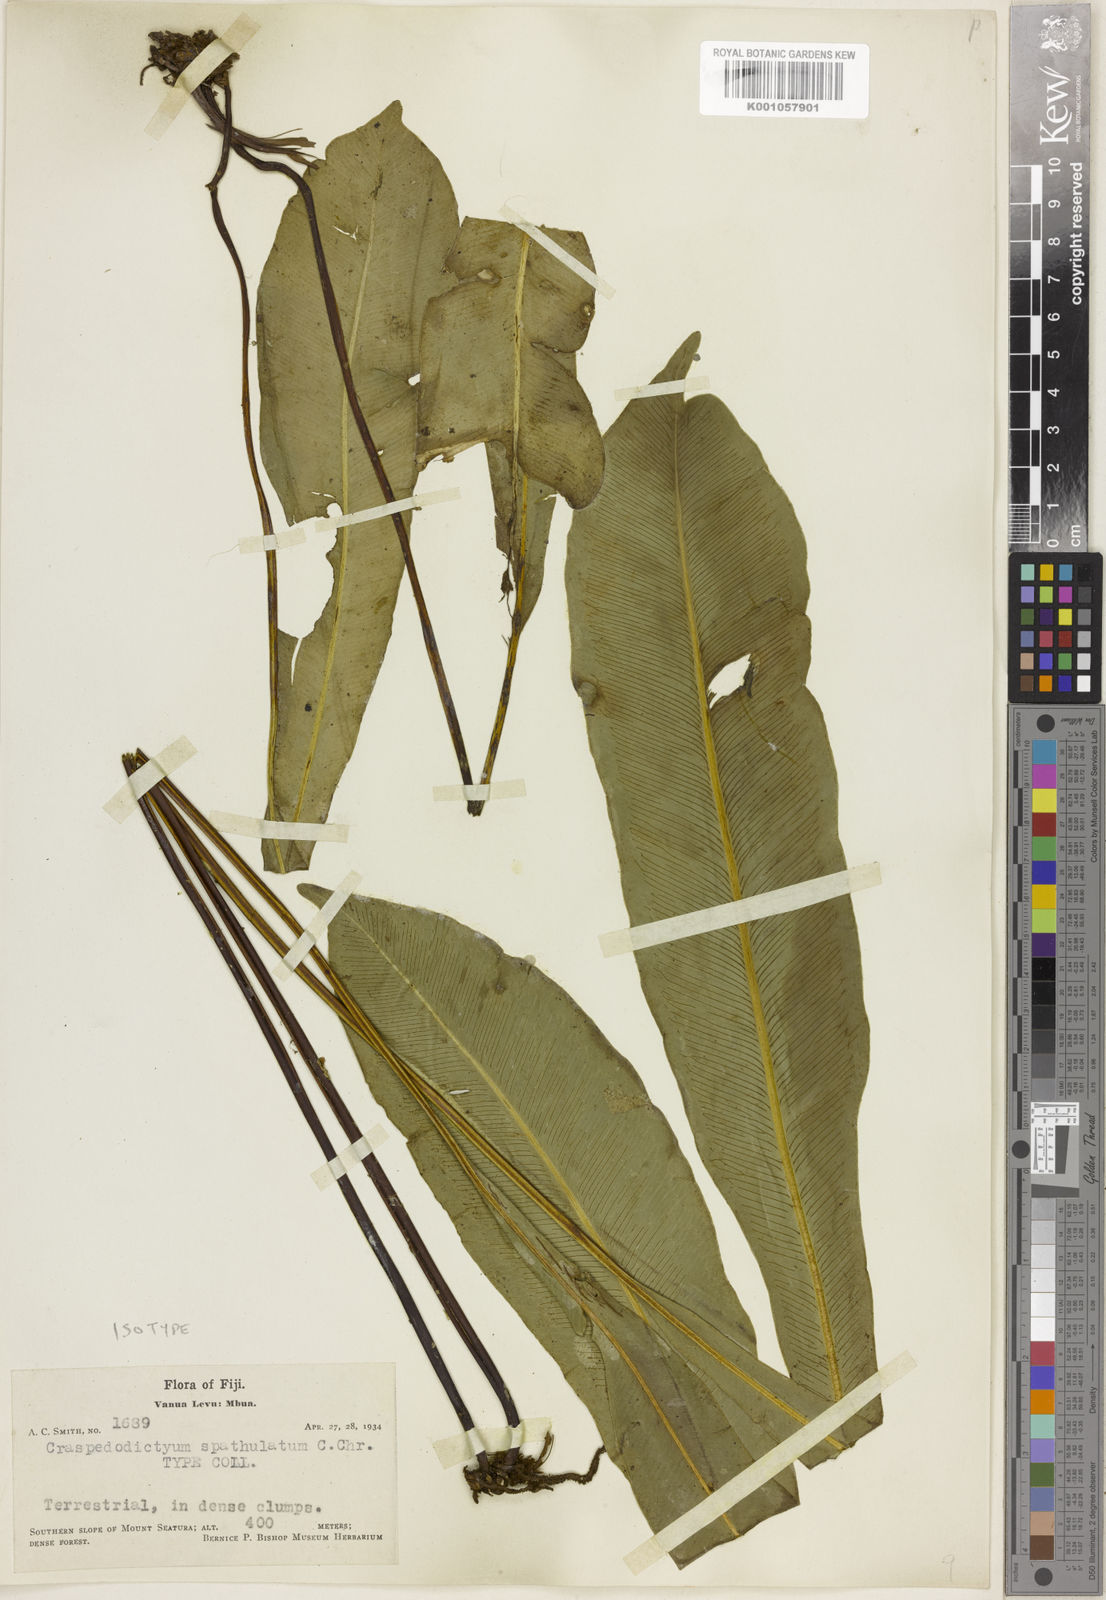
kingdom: Plantae
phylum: Tracheophyta
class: Polypodiopsida
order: Polypodiales
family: Pteridaceae
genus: Syngramma
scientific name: Syngramma spathulata
